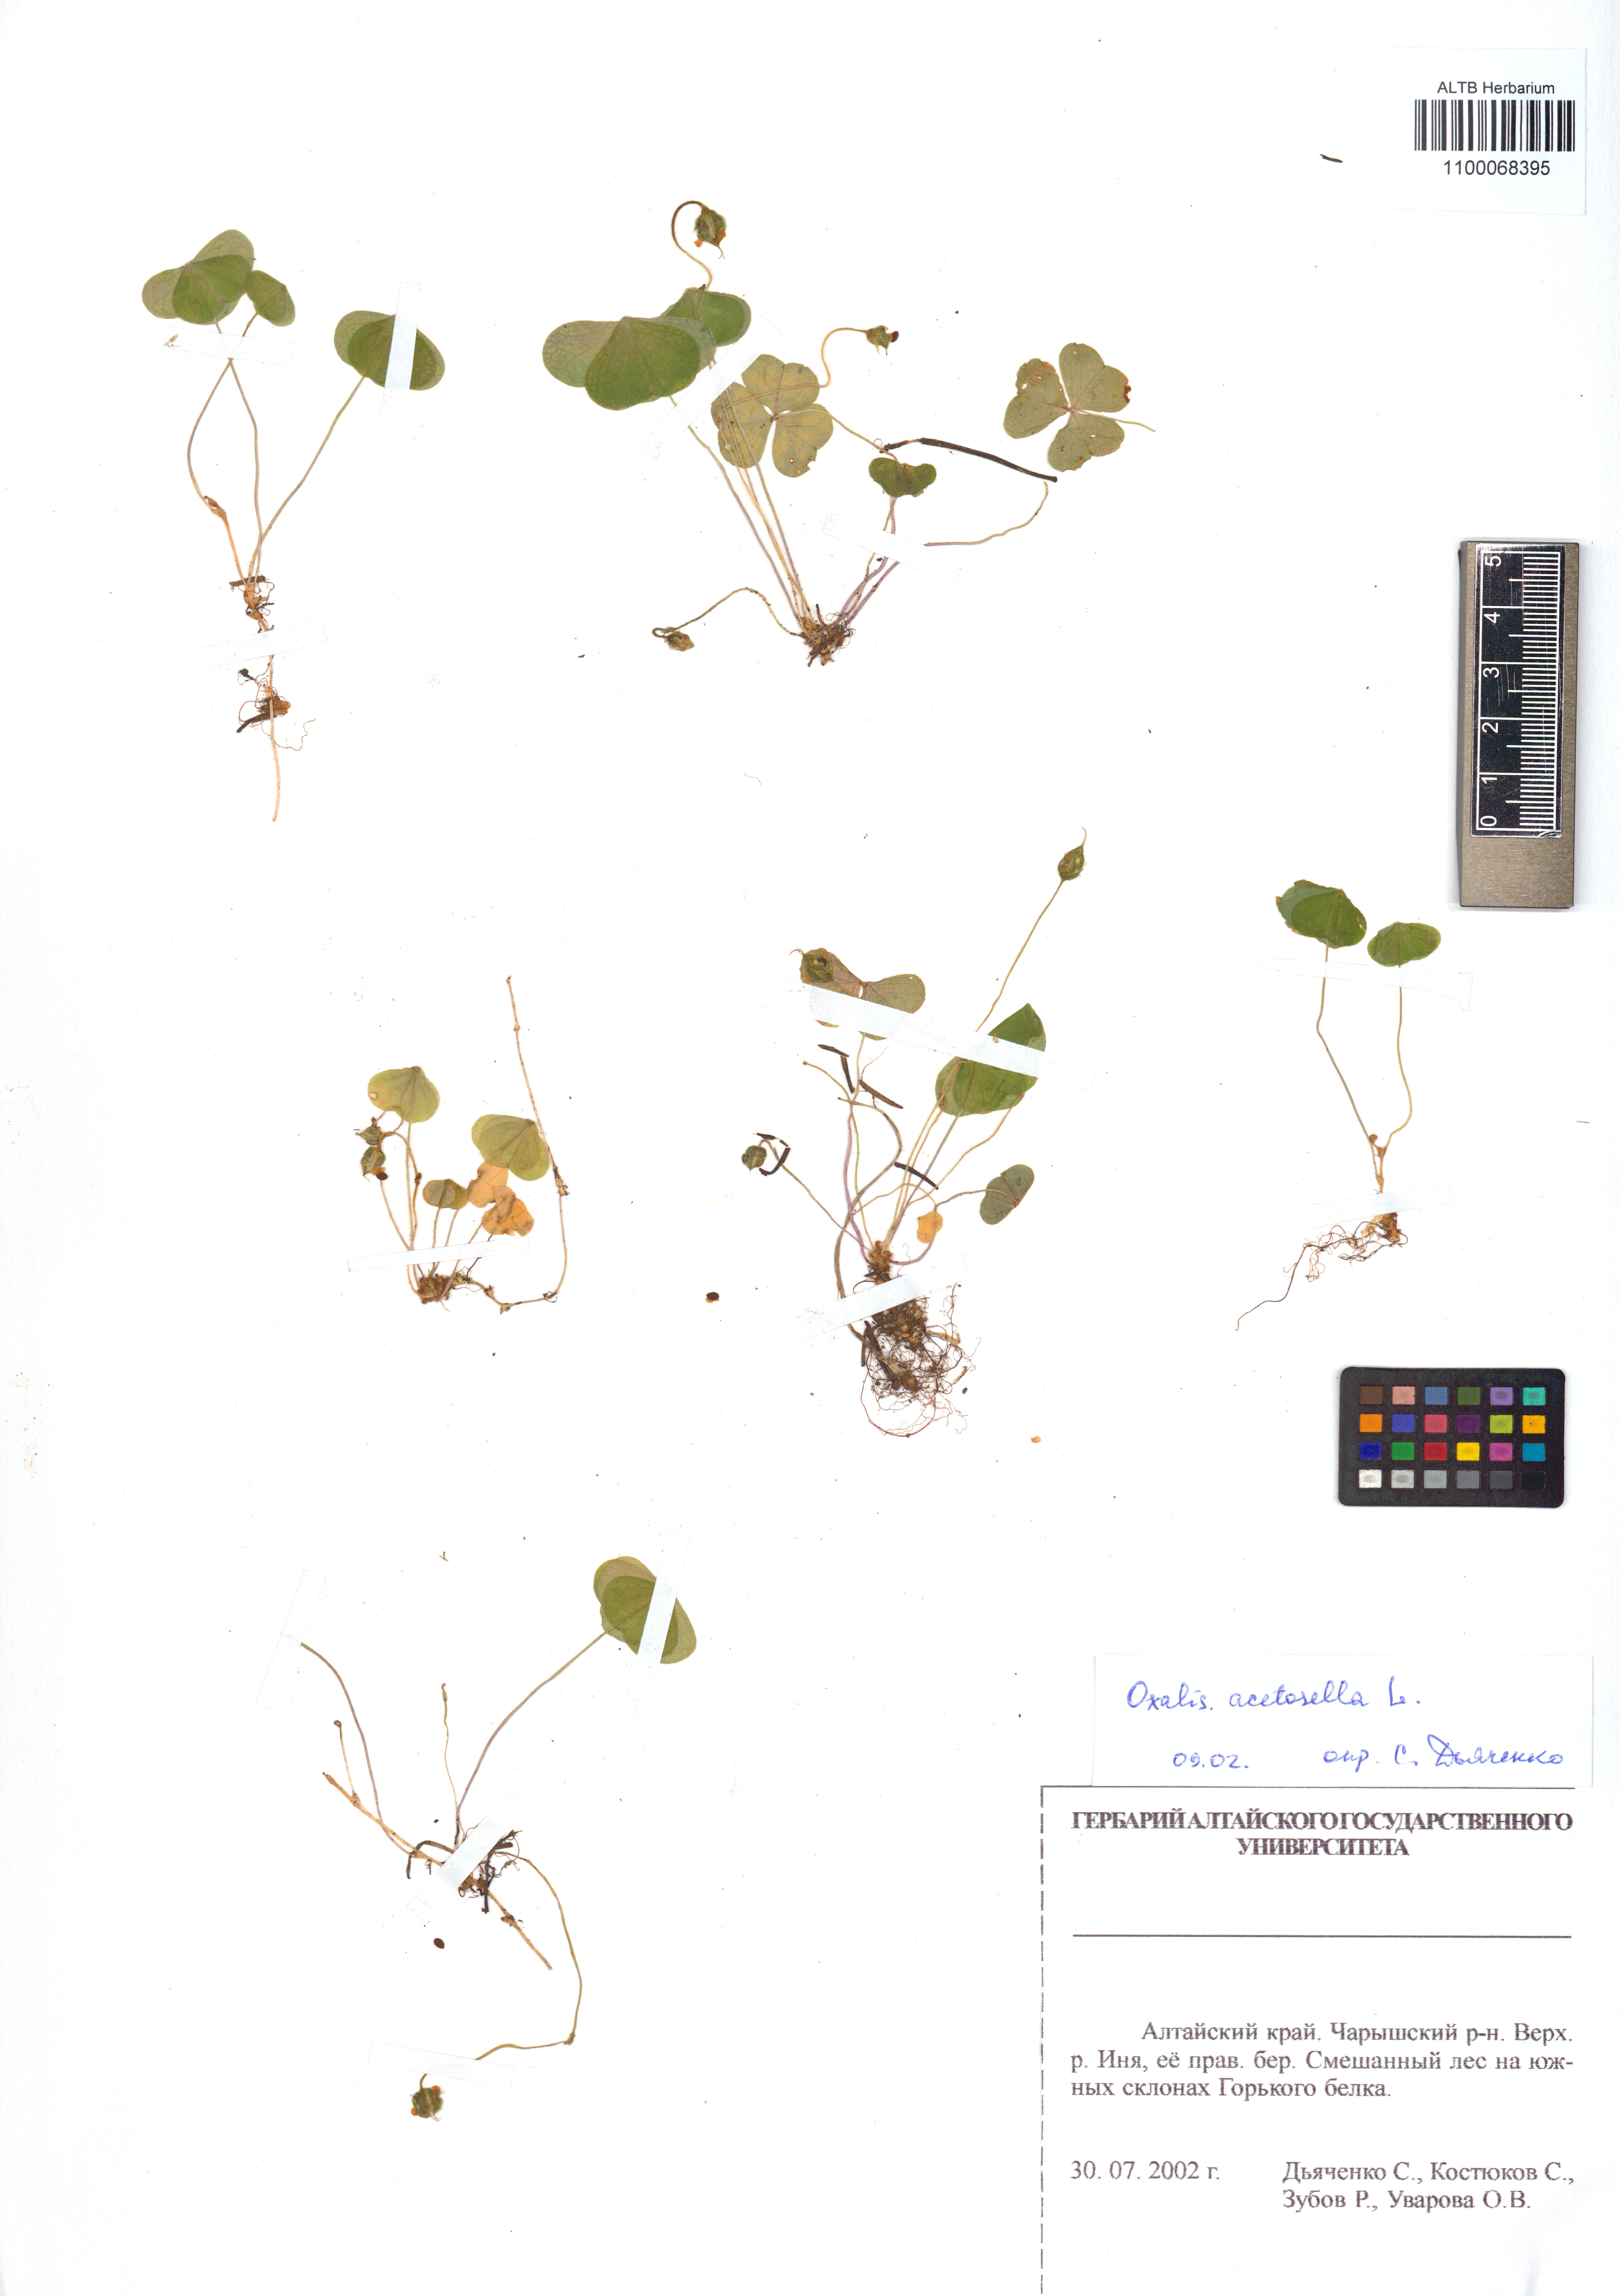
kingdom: Plantae
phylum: Tracheophyta
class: Magnoliopsida
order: Oxalidales
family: Oxalidaceae
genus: Oxalis
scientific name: Oxalis acetosella
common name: Wood-sorrel
